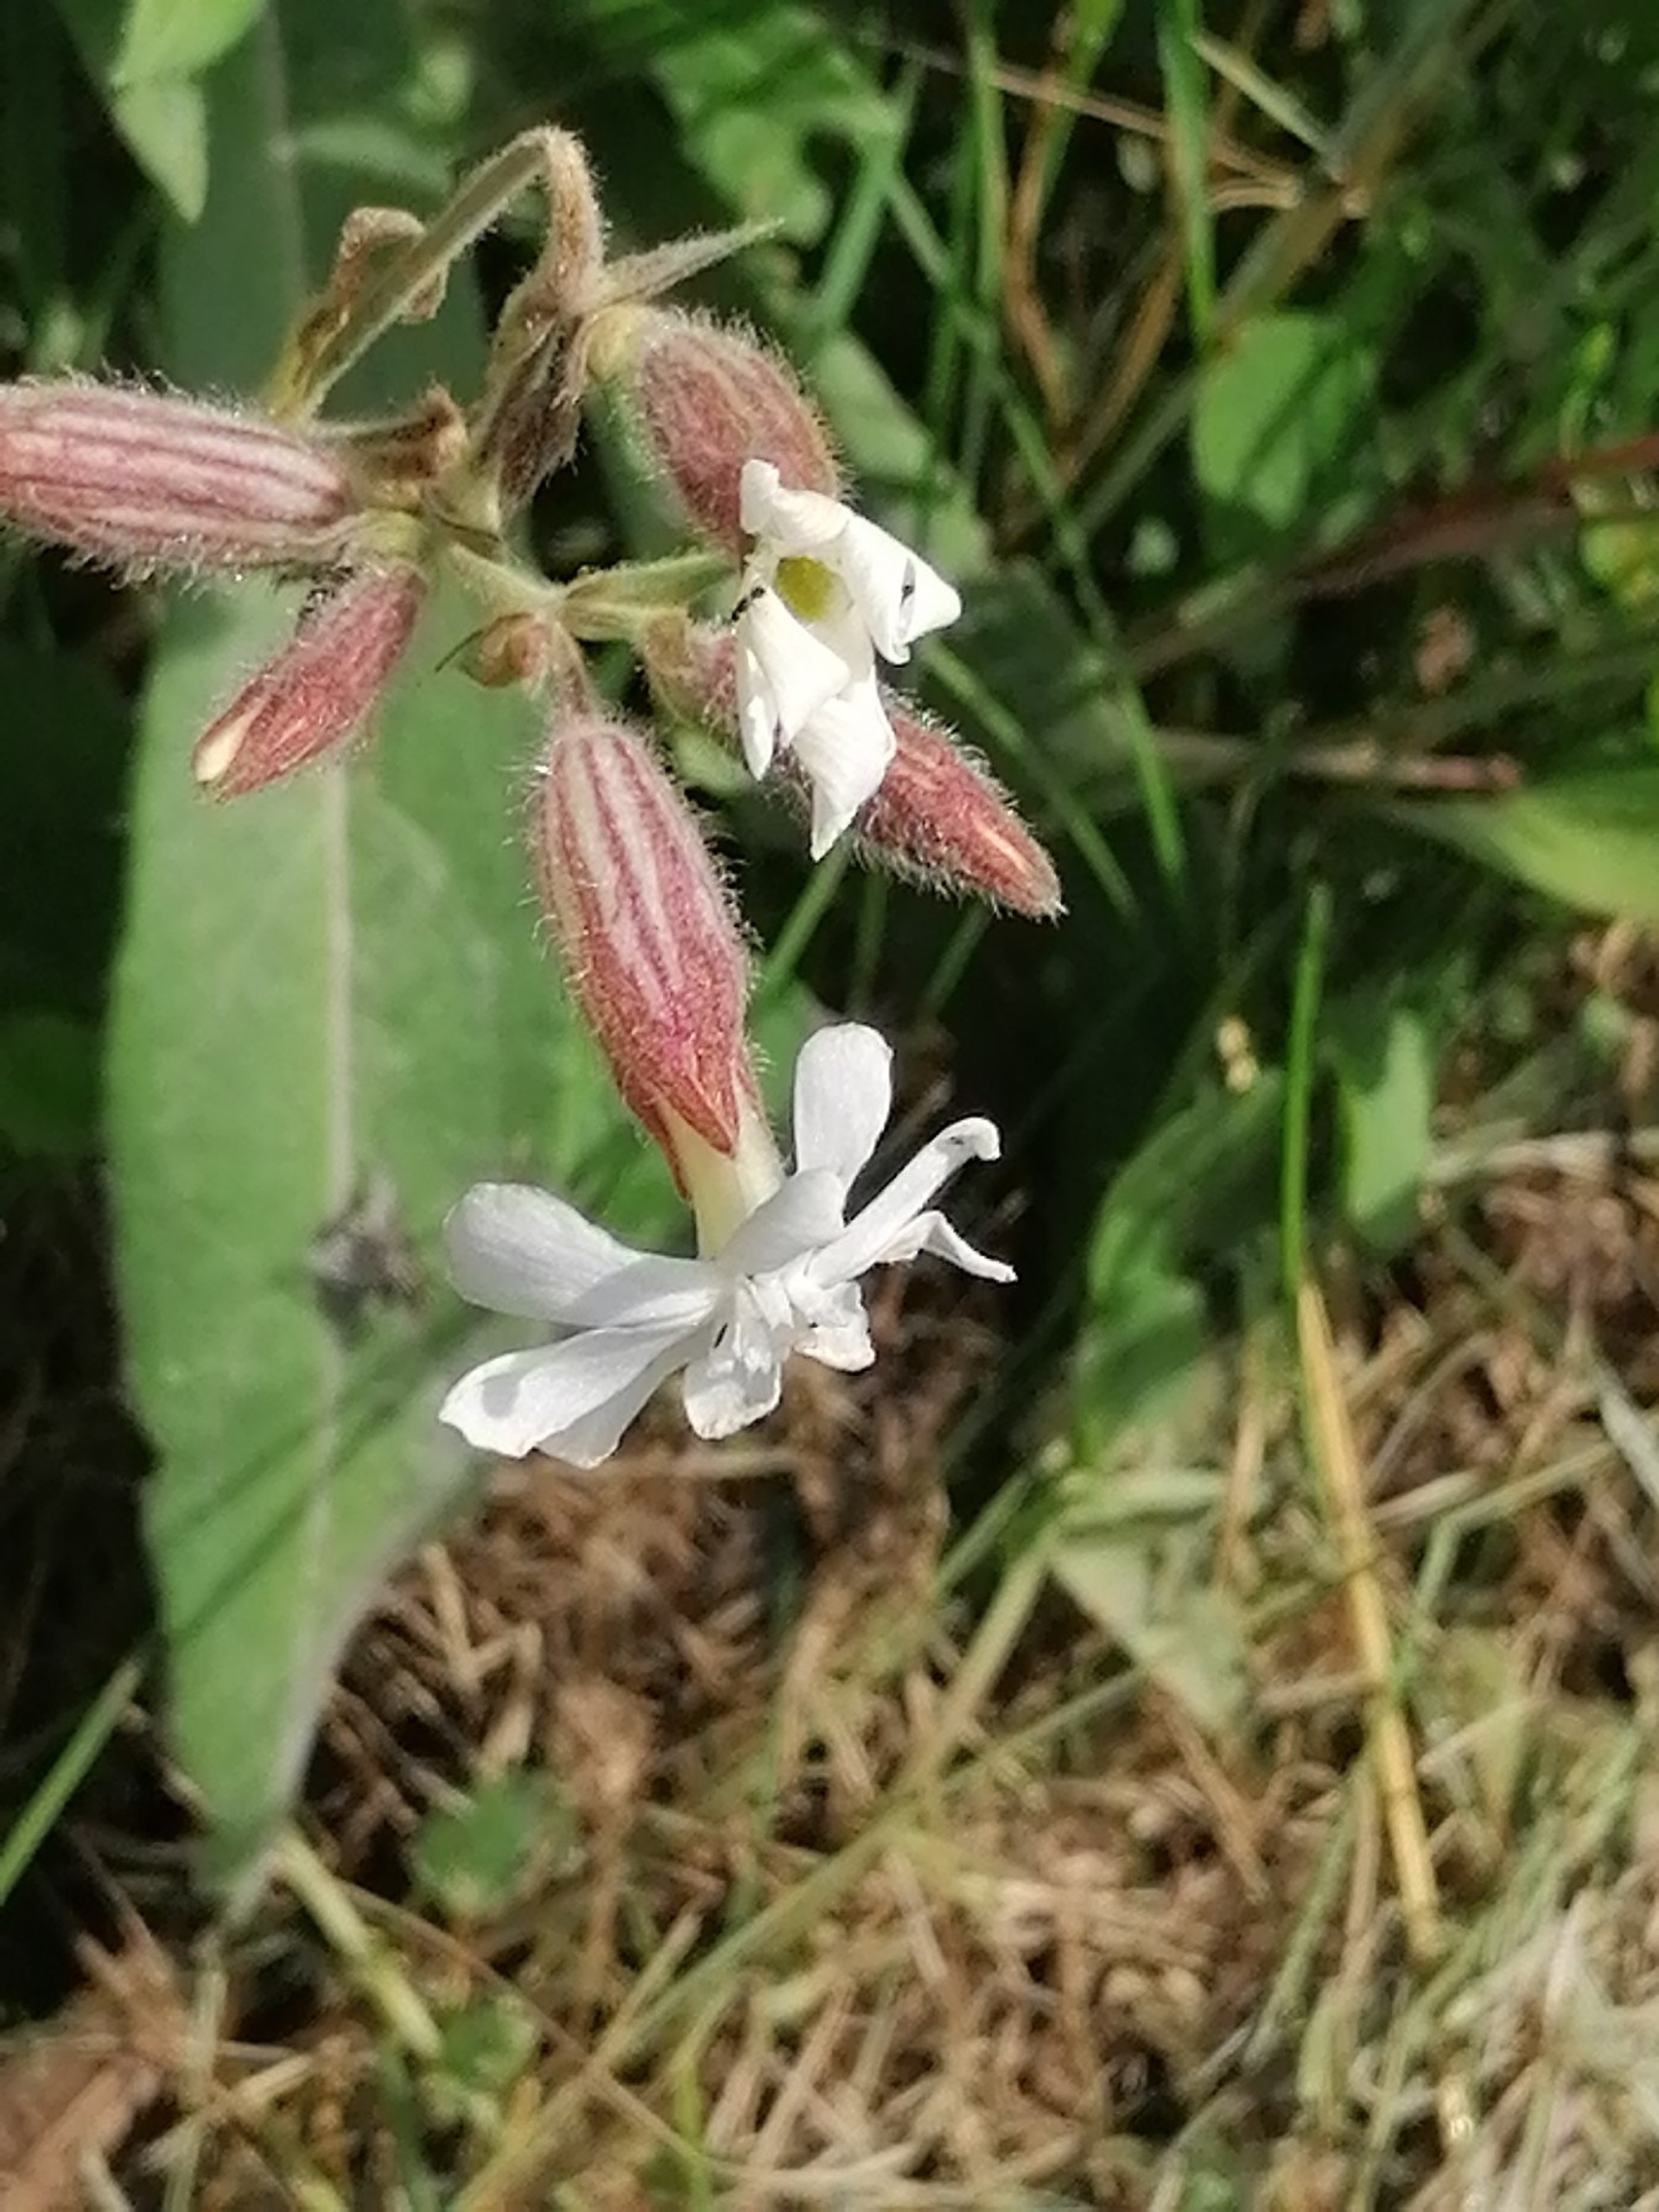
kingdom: Plantae
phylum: Tracheophyta
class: Magnoliopsida
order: Caryophyllales
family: Caryophyllaceae
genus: Silene
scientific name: Silene latifolia
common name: Aftenpragtstjerne
